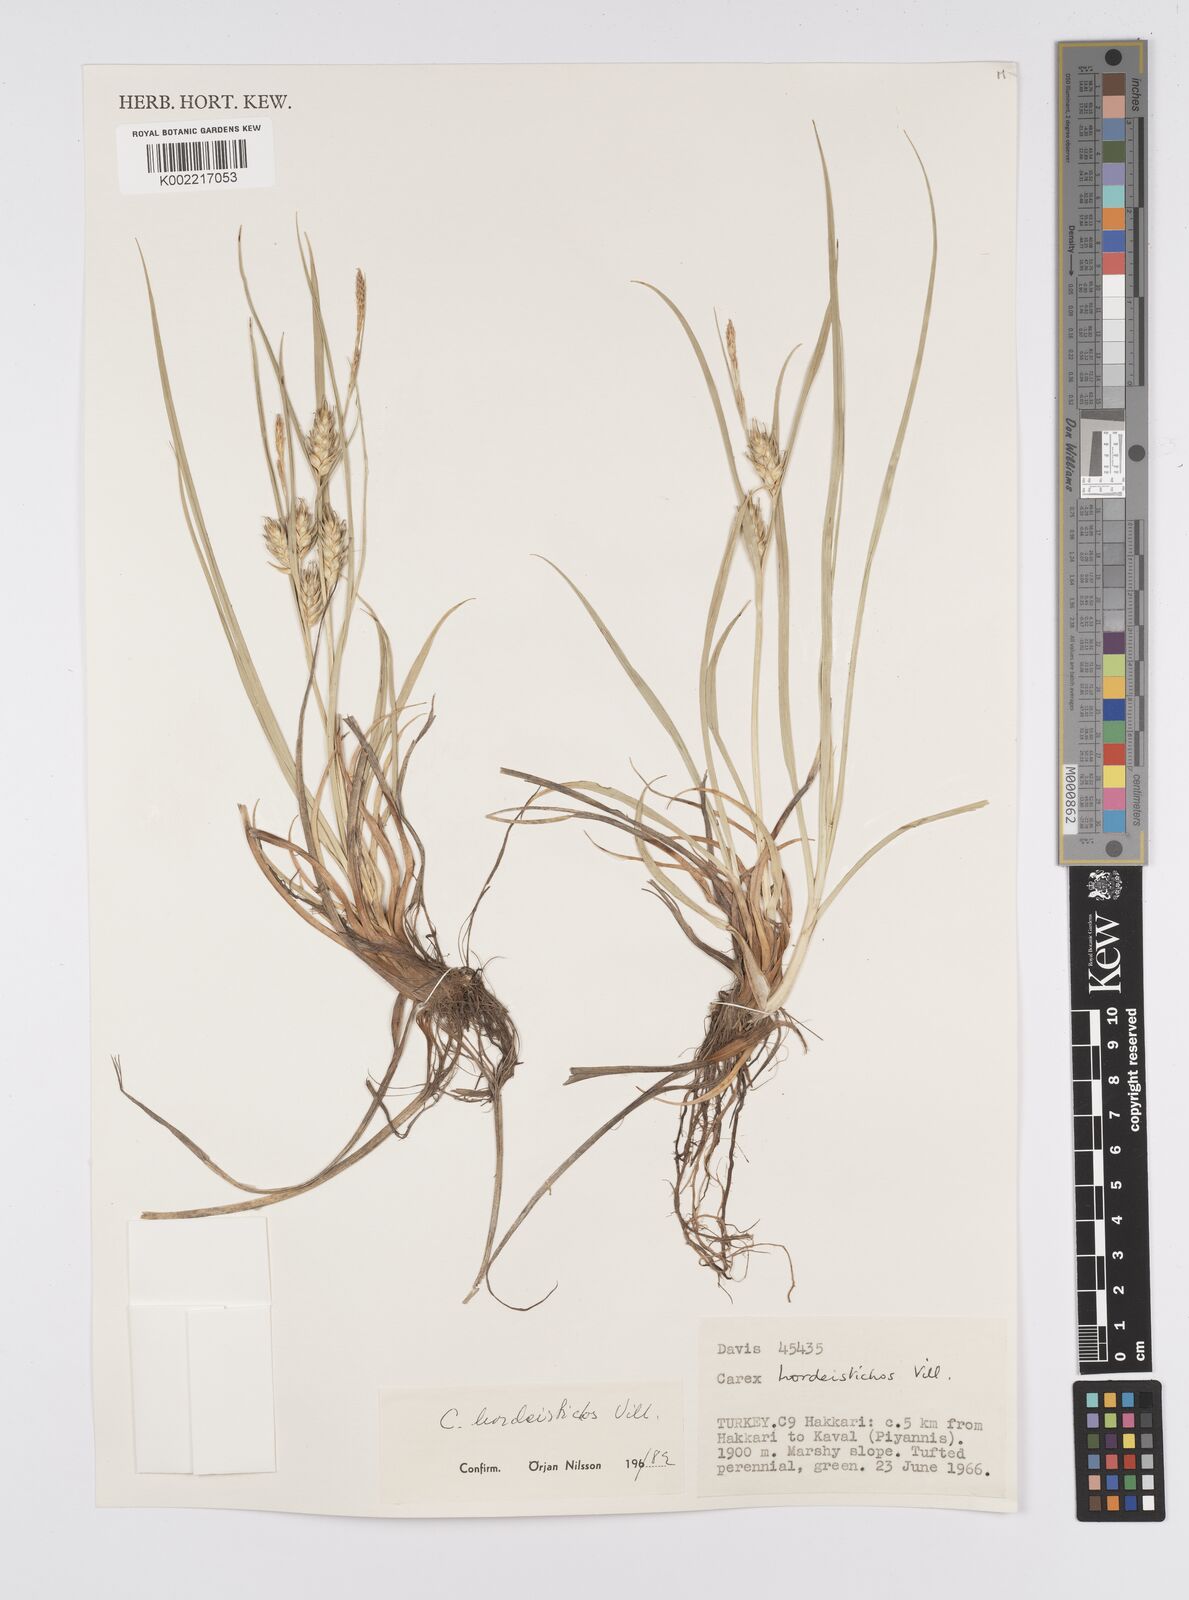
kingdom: Plantae
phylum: Tracheophyta
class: Liliopsida
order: Poales
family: Cyperaceae
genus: Carex
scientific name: Carex hordeistichos
